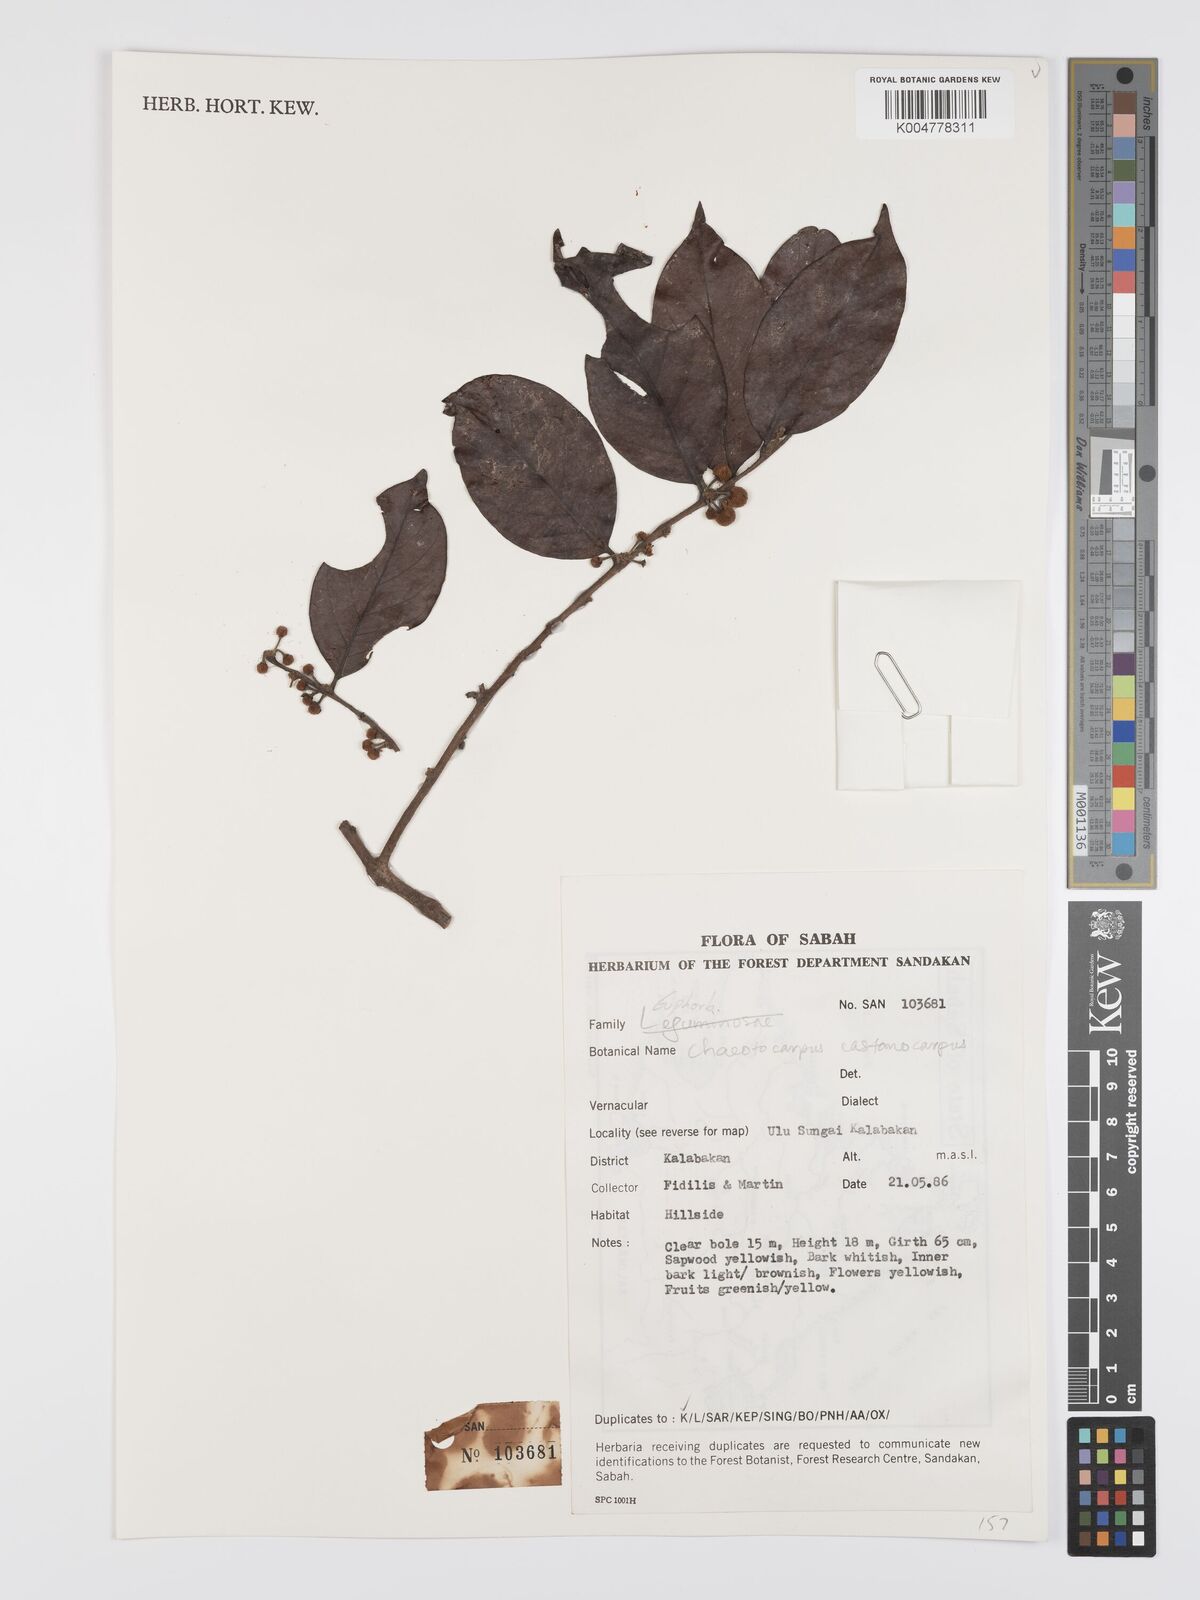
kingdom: Plantae
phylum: Tracheophyta
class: Magnoliopsida
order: Malpighiales
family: Peraceae
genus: Chaetocarpus
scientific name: Chaetocarpus castanocarpus
